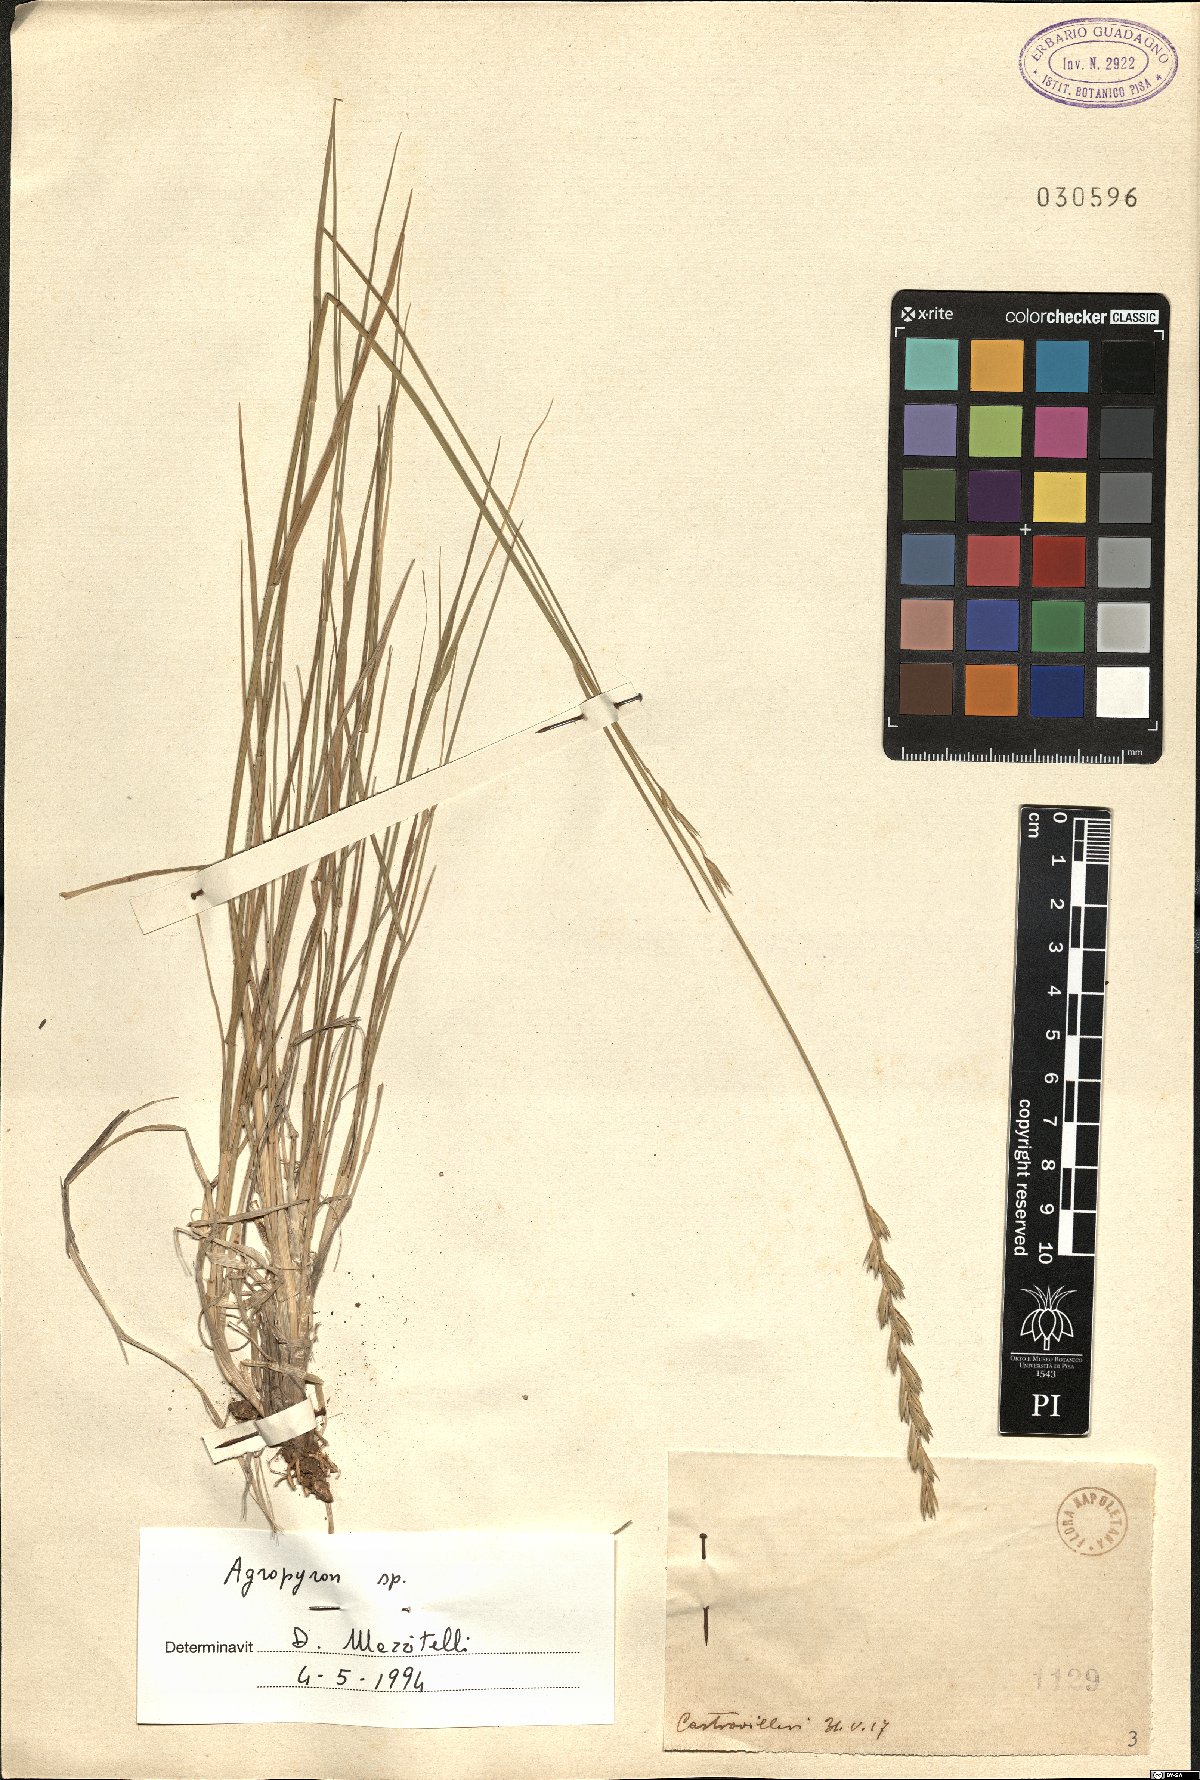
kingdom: Plantae
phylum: Tracheophyta
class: Liliopsida
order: Poales
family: Poaceae
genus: Agropyron
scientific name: Agropyron
